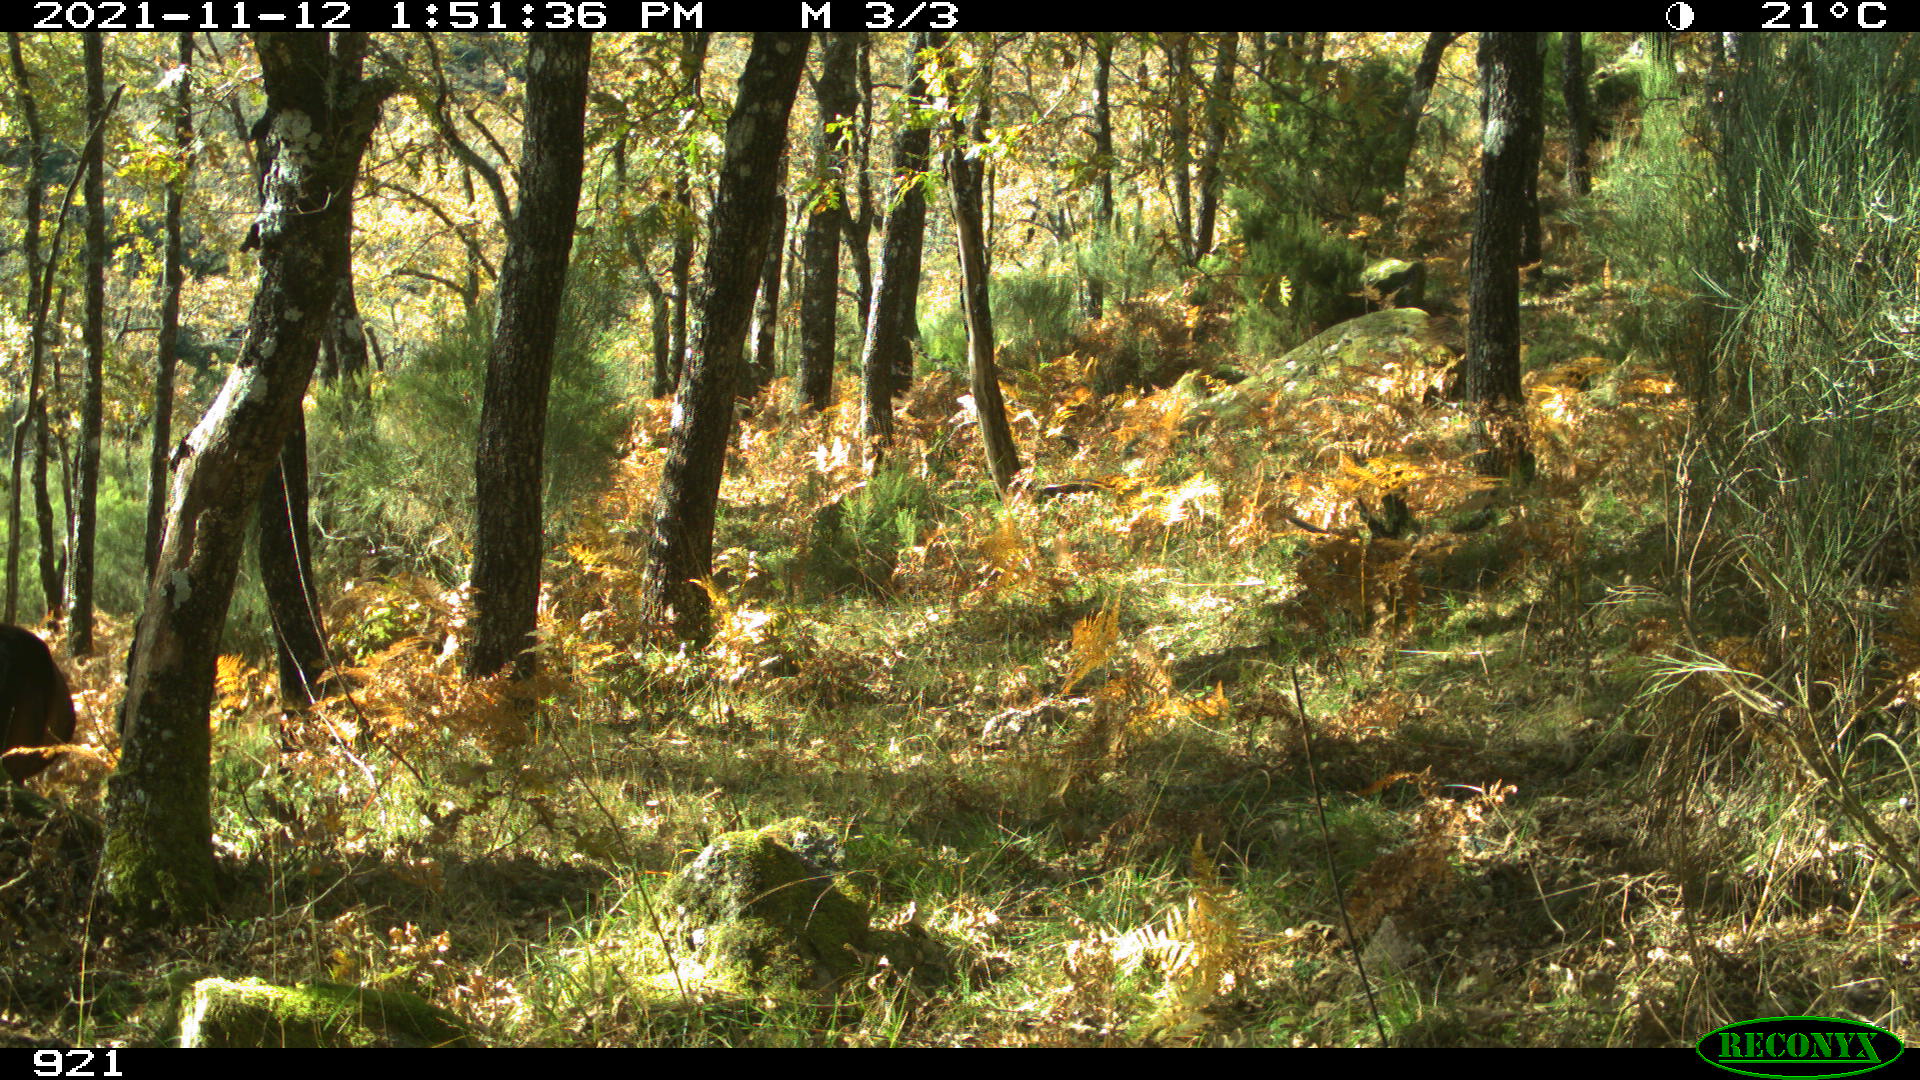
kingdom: Animalia
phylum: Chordata
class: Mammalia
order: Perissodactyla
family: Equidae
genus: Equus
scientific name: Equus caballus
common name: Horse
